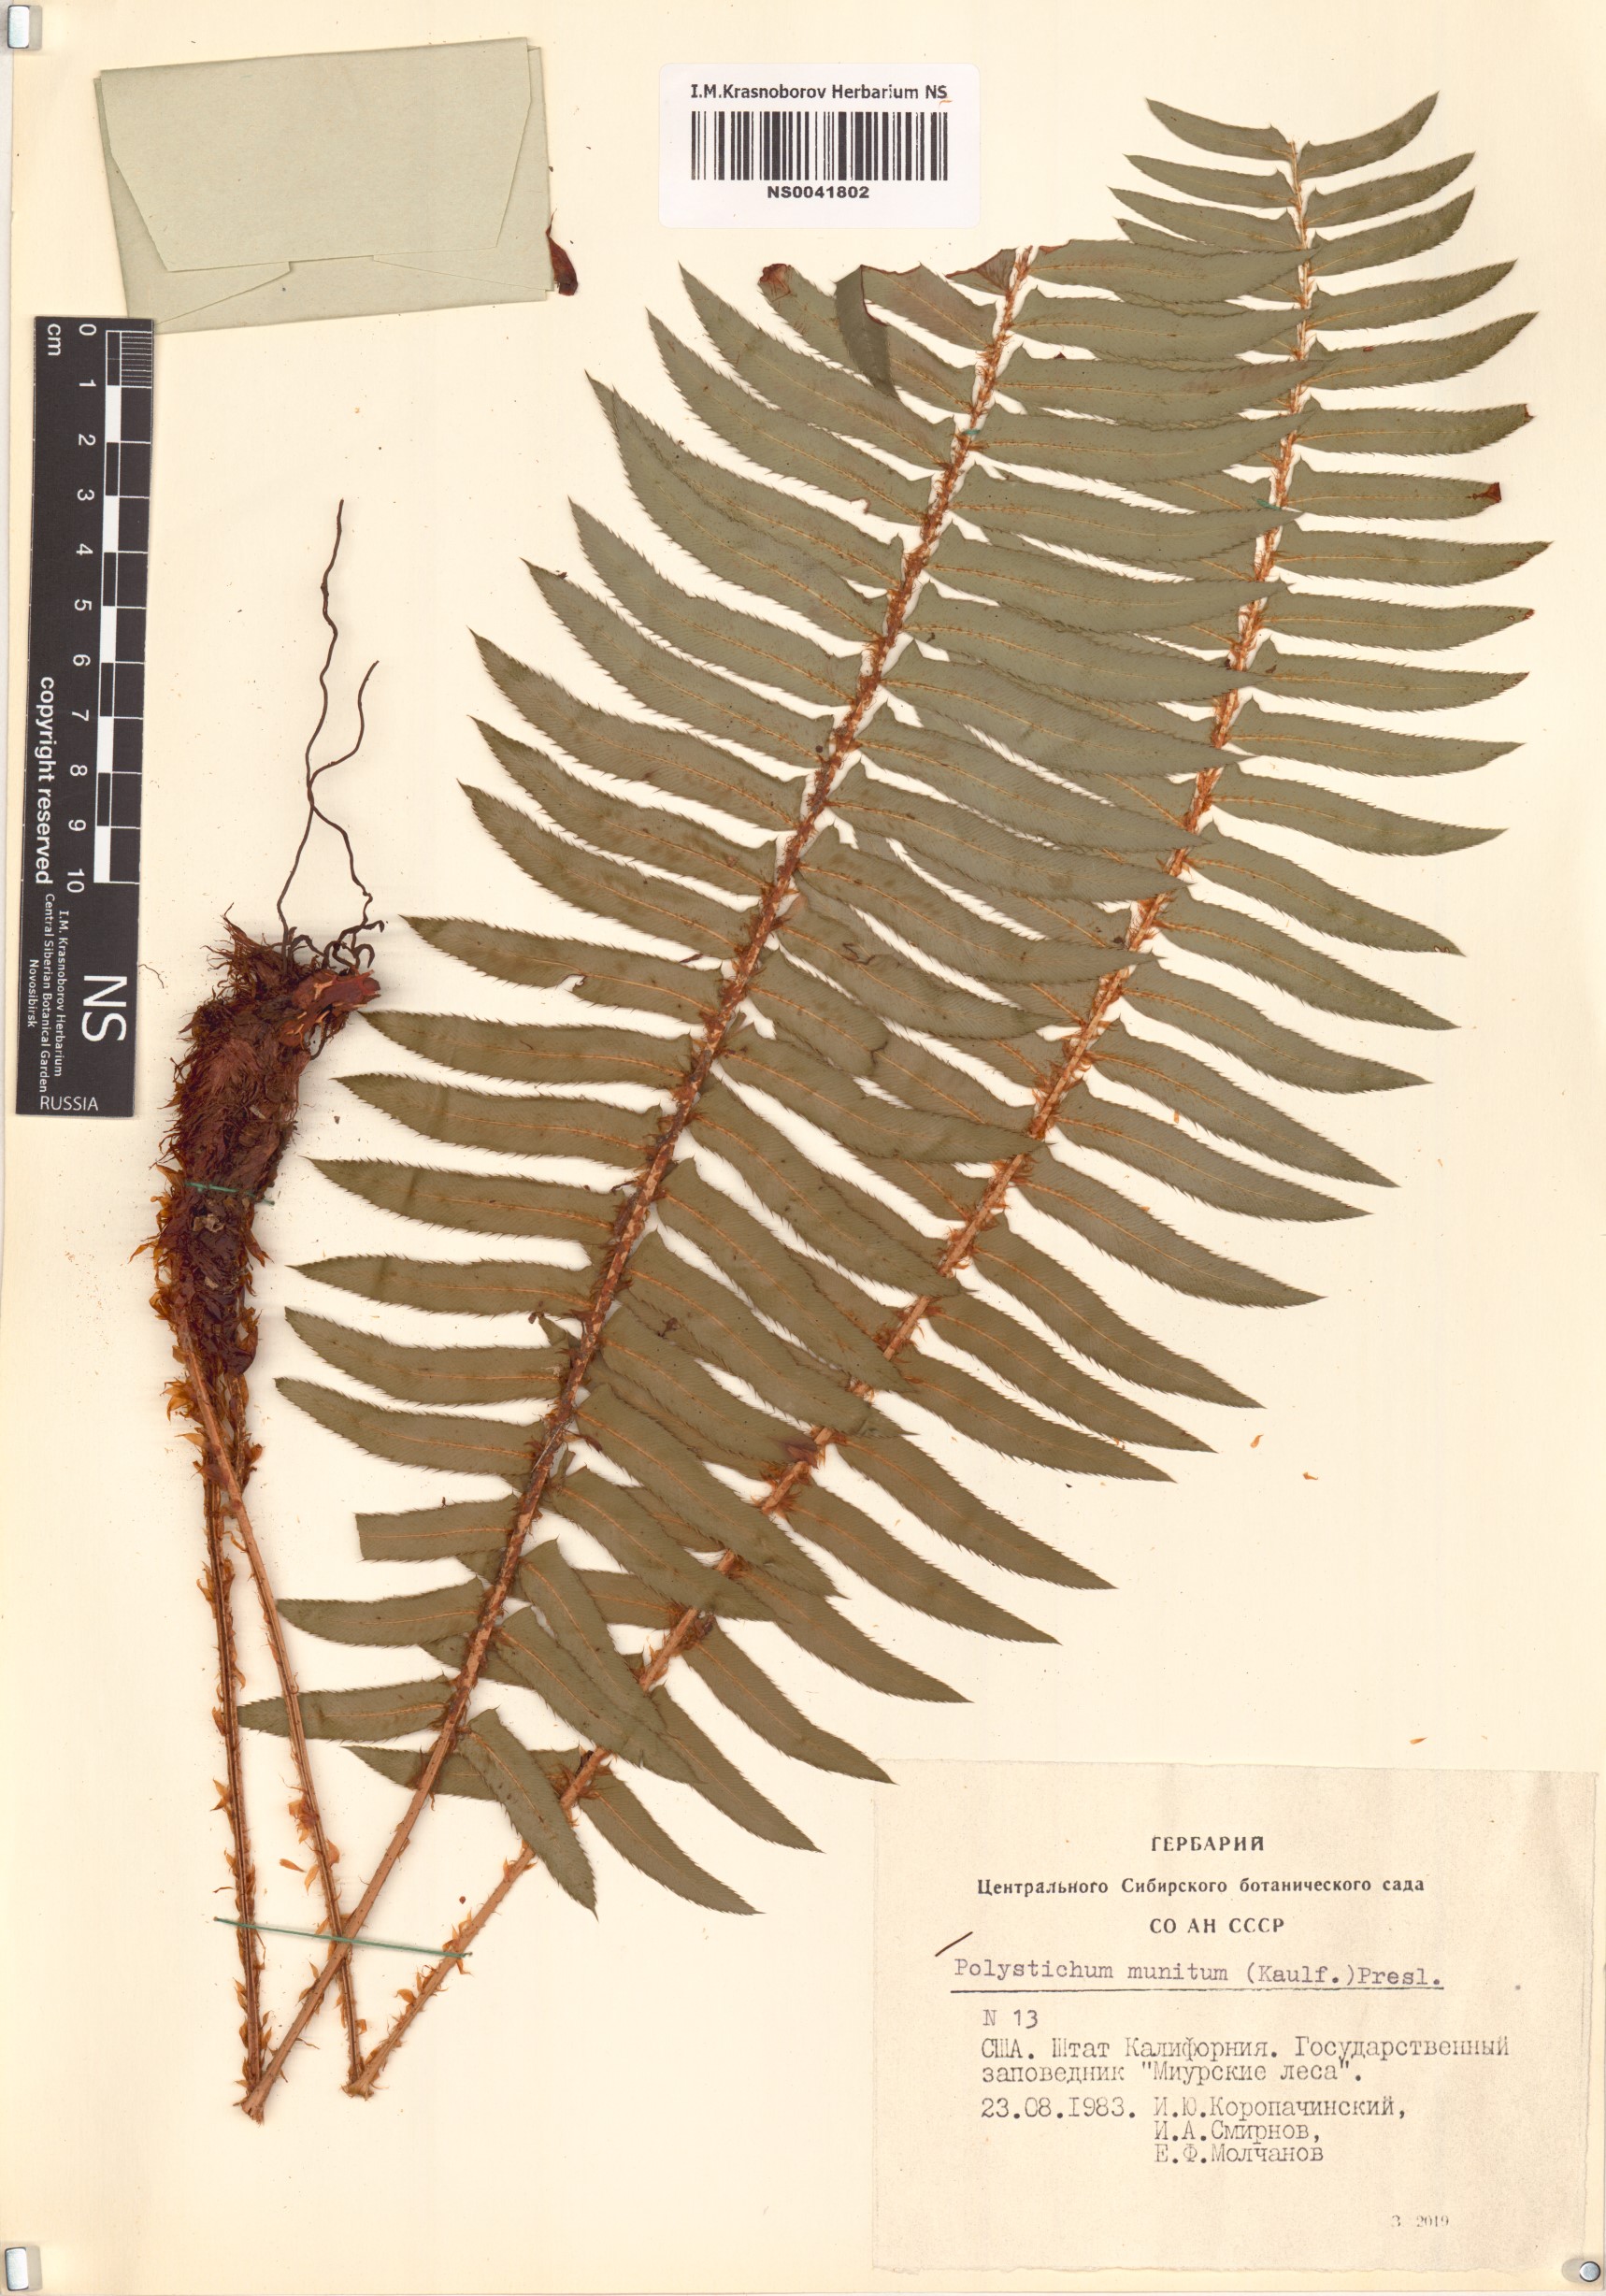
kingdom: Plantae
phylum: Tracheophyta
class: Polypodiopsida
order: Polypodiales
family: Dryopteridaceae
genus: Polystichum
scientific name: Polystichum munitum
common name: Western sword-fern
